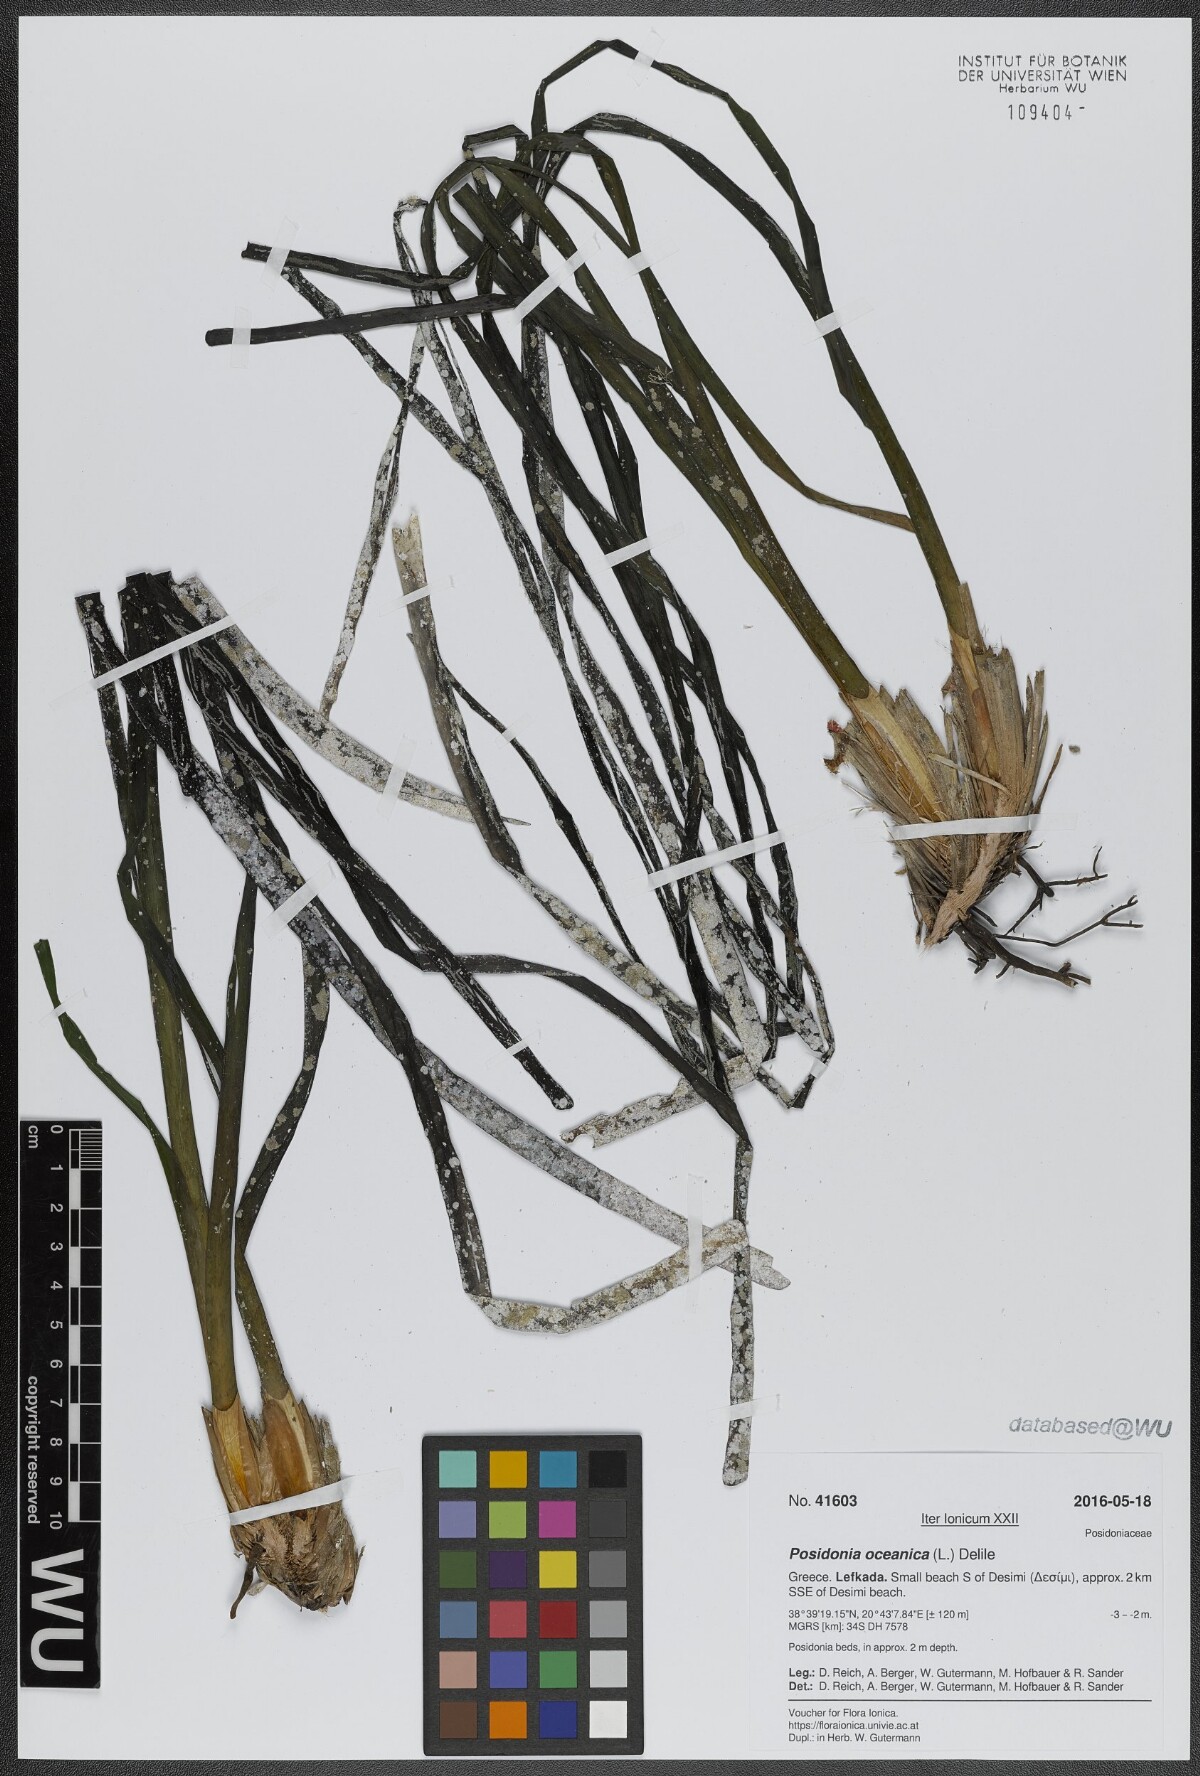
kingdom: Plantae
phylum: Tracheophyta
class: Liliopsida
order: Alismatales
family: Posidoniaceae
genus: Posidonia
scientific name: Posidonia oceanica
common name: Mediterranean tapeweed
